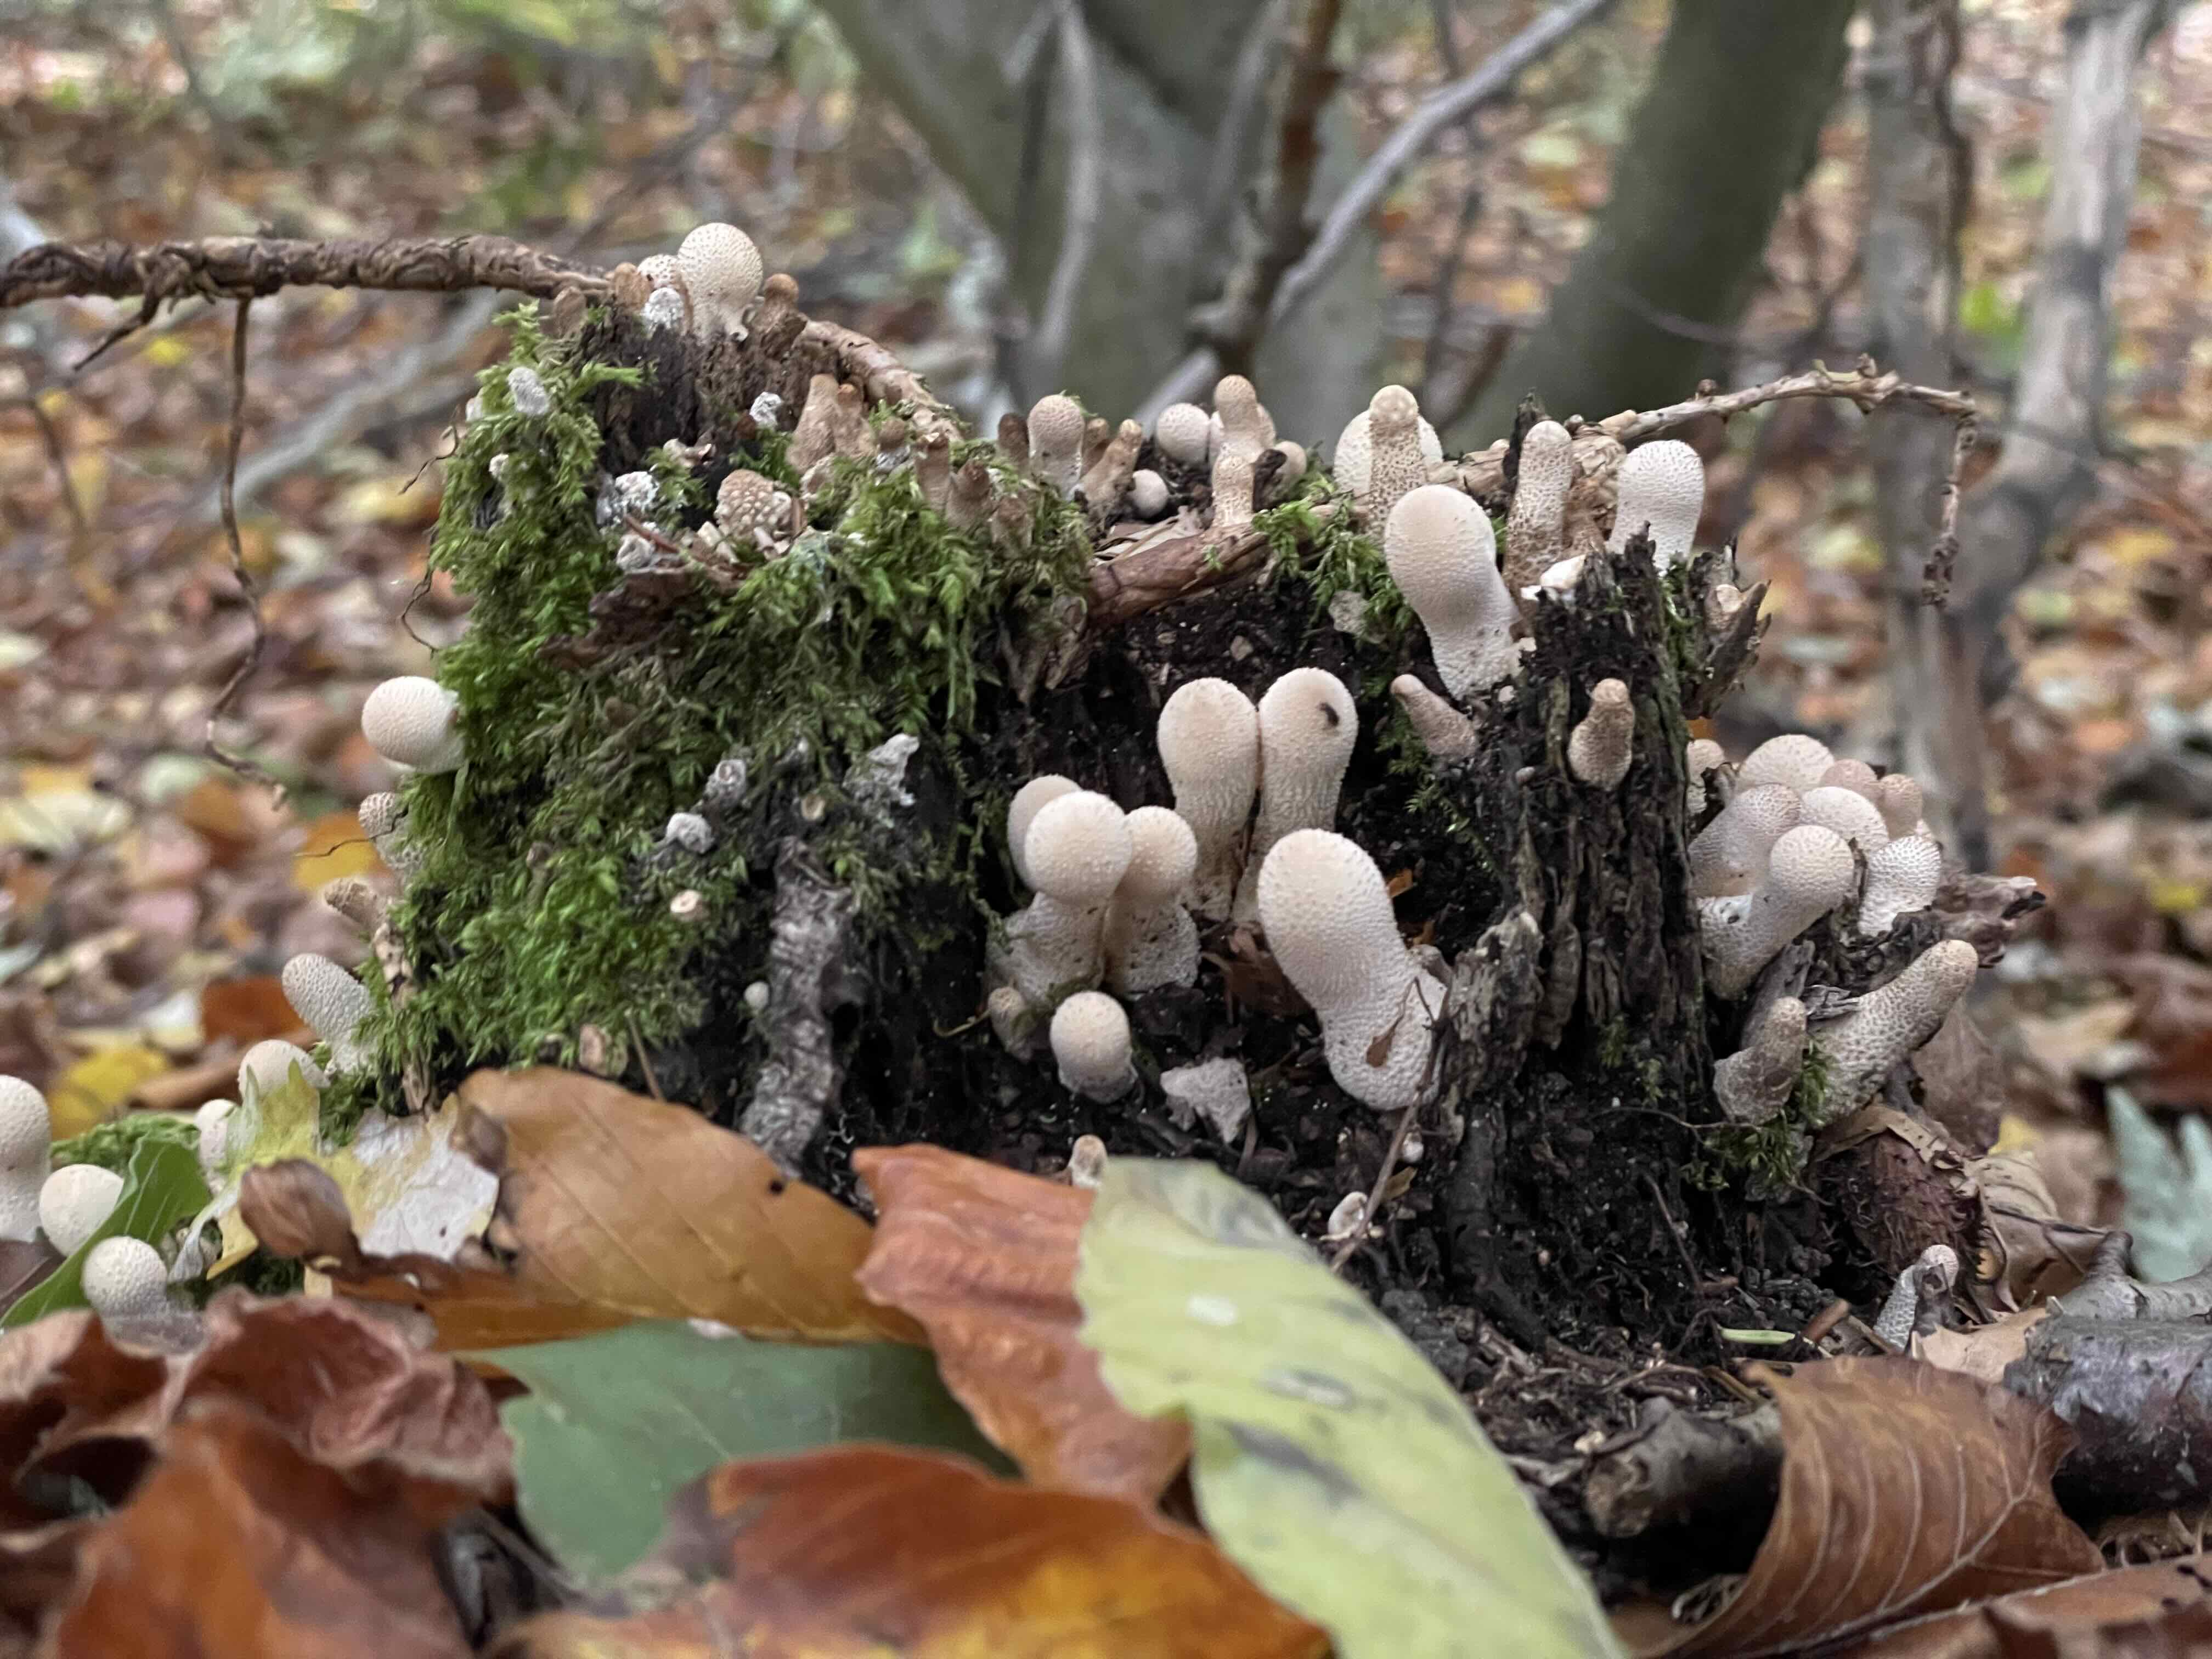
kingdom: Fungi
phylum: Basidiomycota
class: Agaricomycetes
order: Agaricales
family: Lycoperdaceae
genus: Apioperdon
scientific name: Apioperdon pyriforme
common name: pære-støvbold
